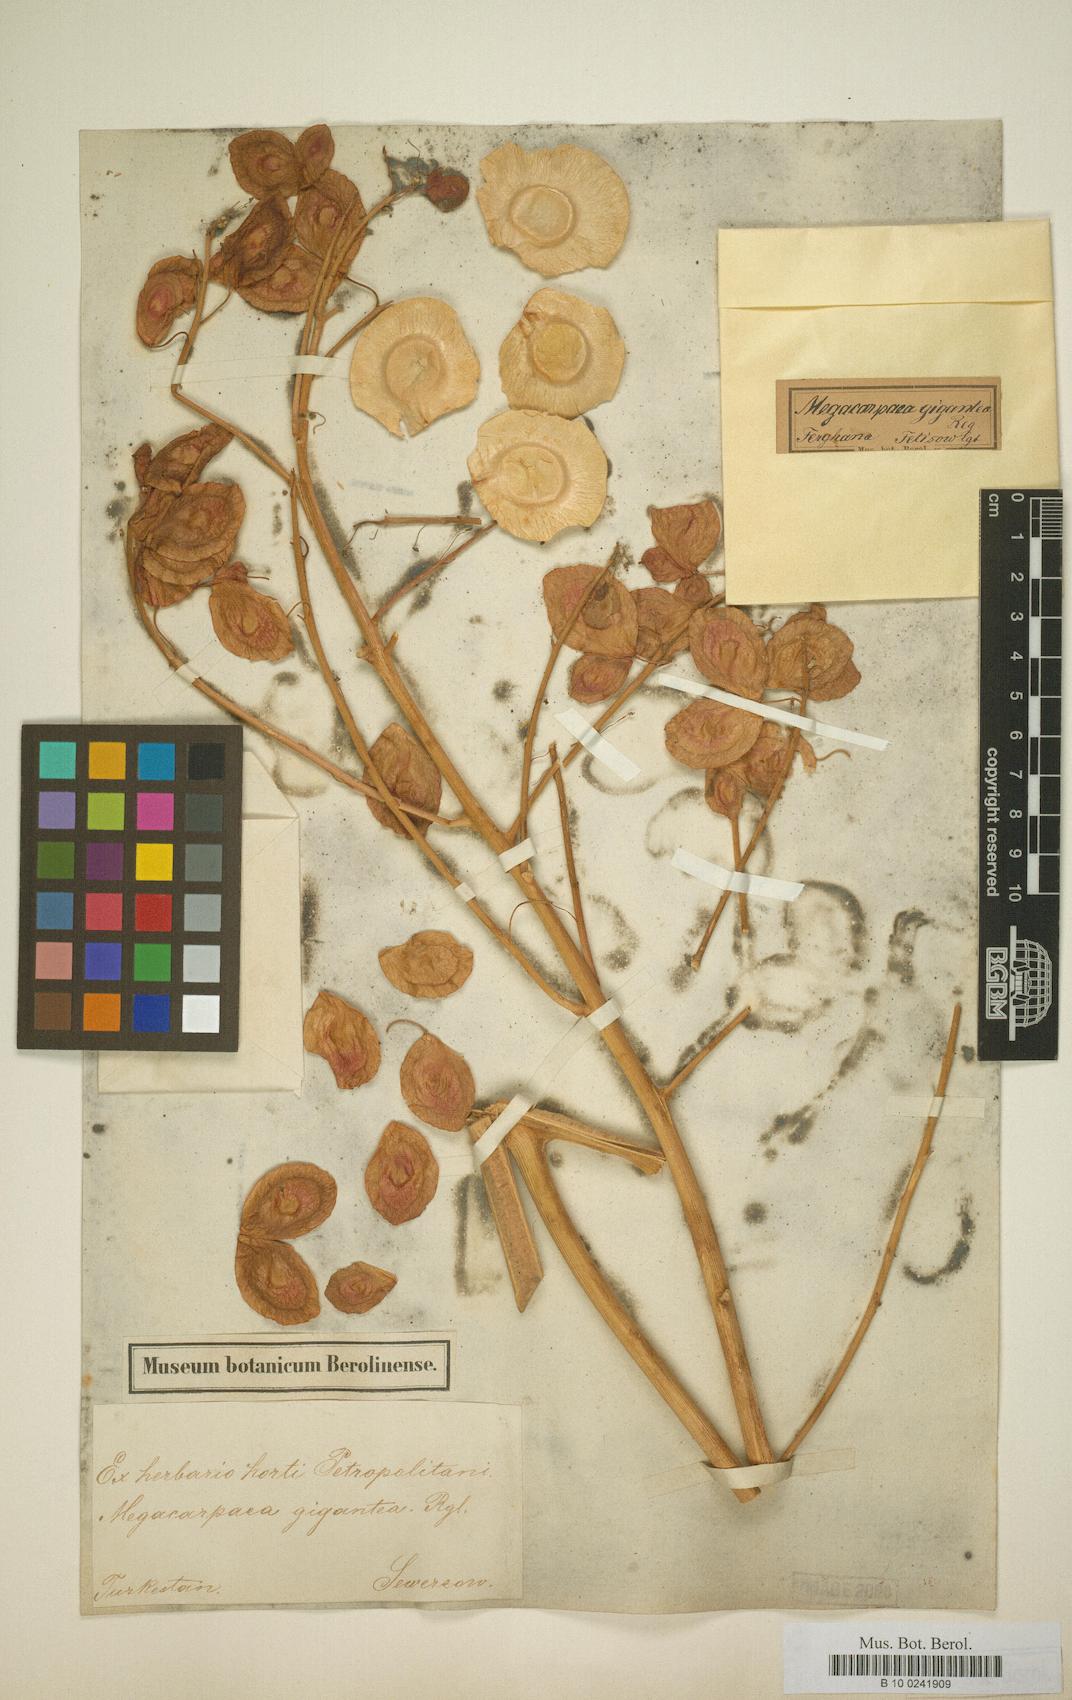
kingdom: Plantae
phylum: Tracheophyta
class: Magnoliopsida
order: Brassicales
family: Brassicaceae
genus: Megacarpaea
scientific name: Megacarpaea gigantea
